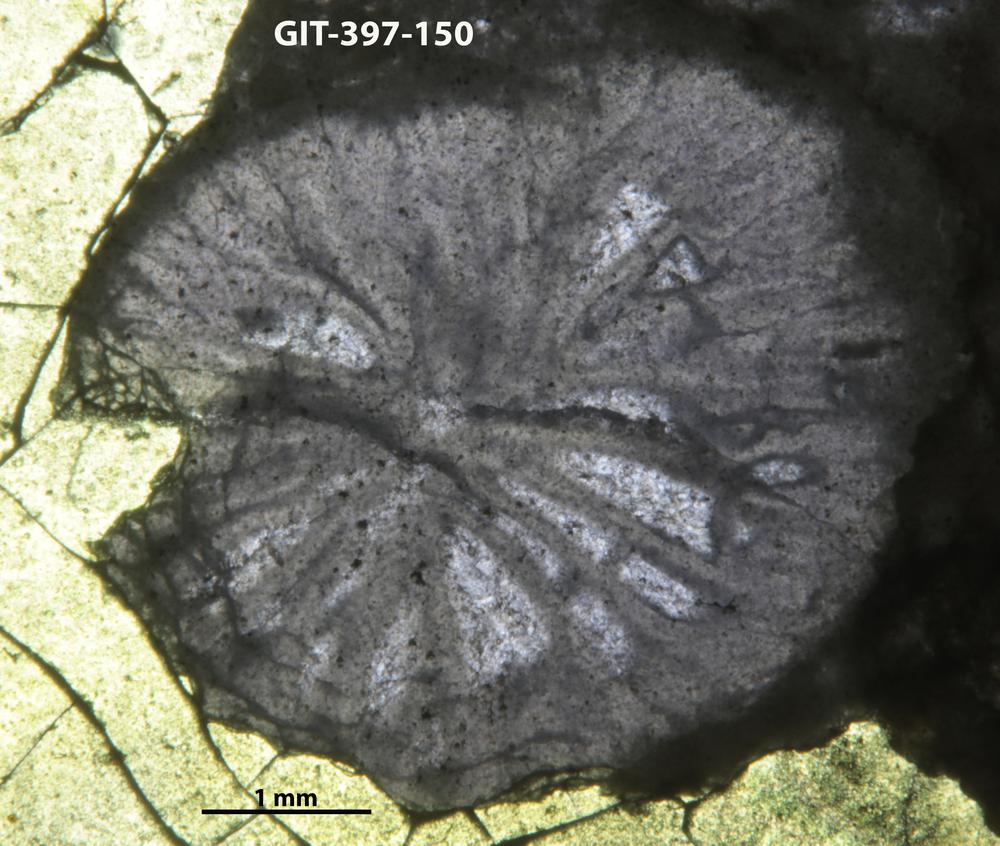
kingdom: Animalia
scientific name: Animalia
